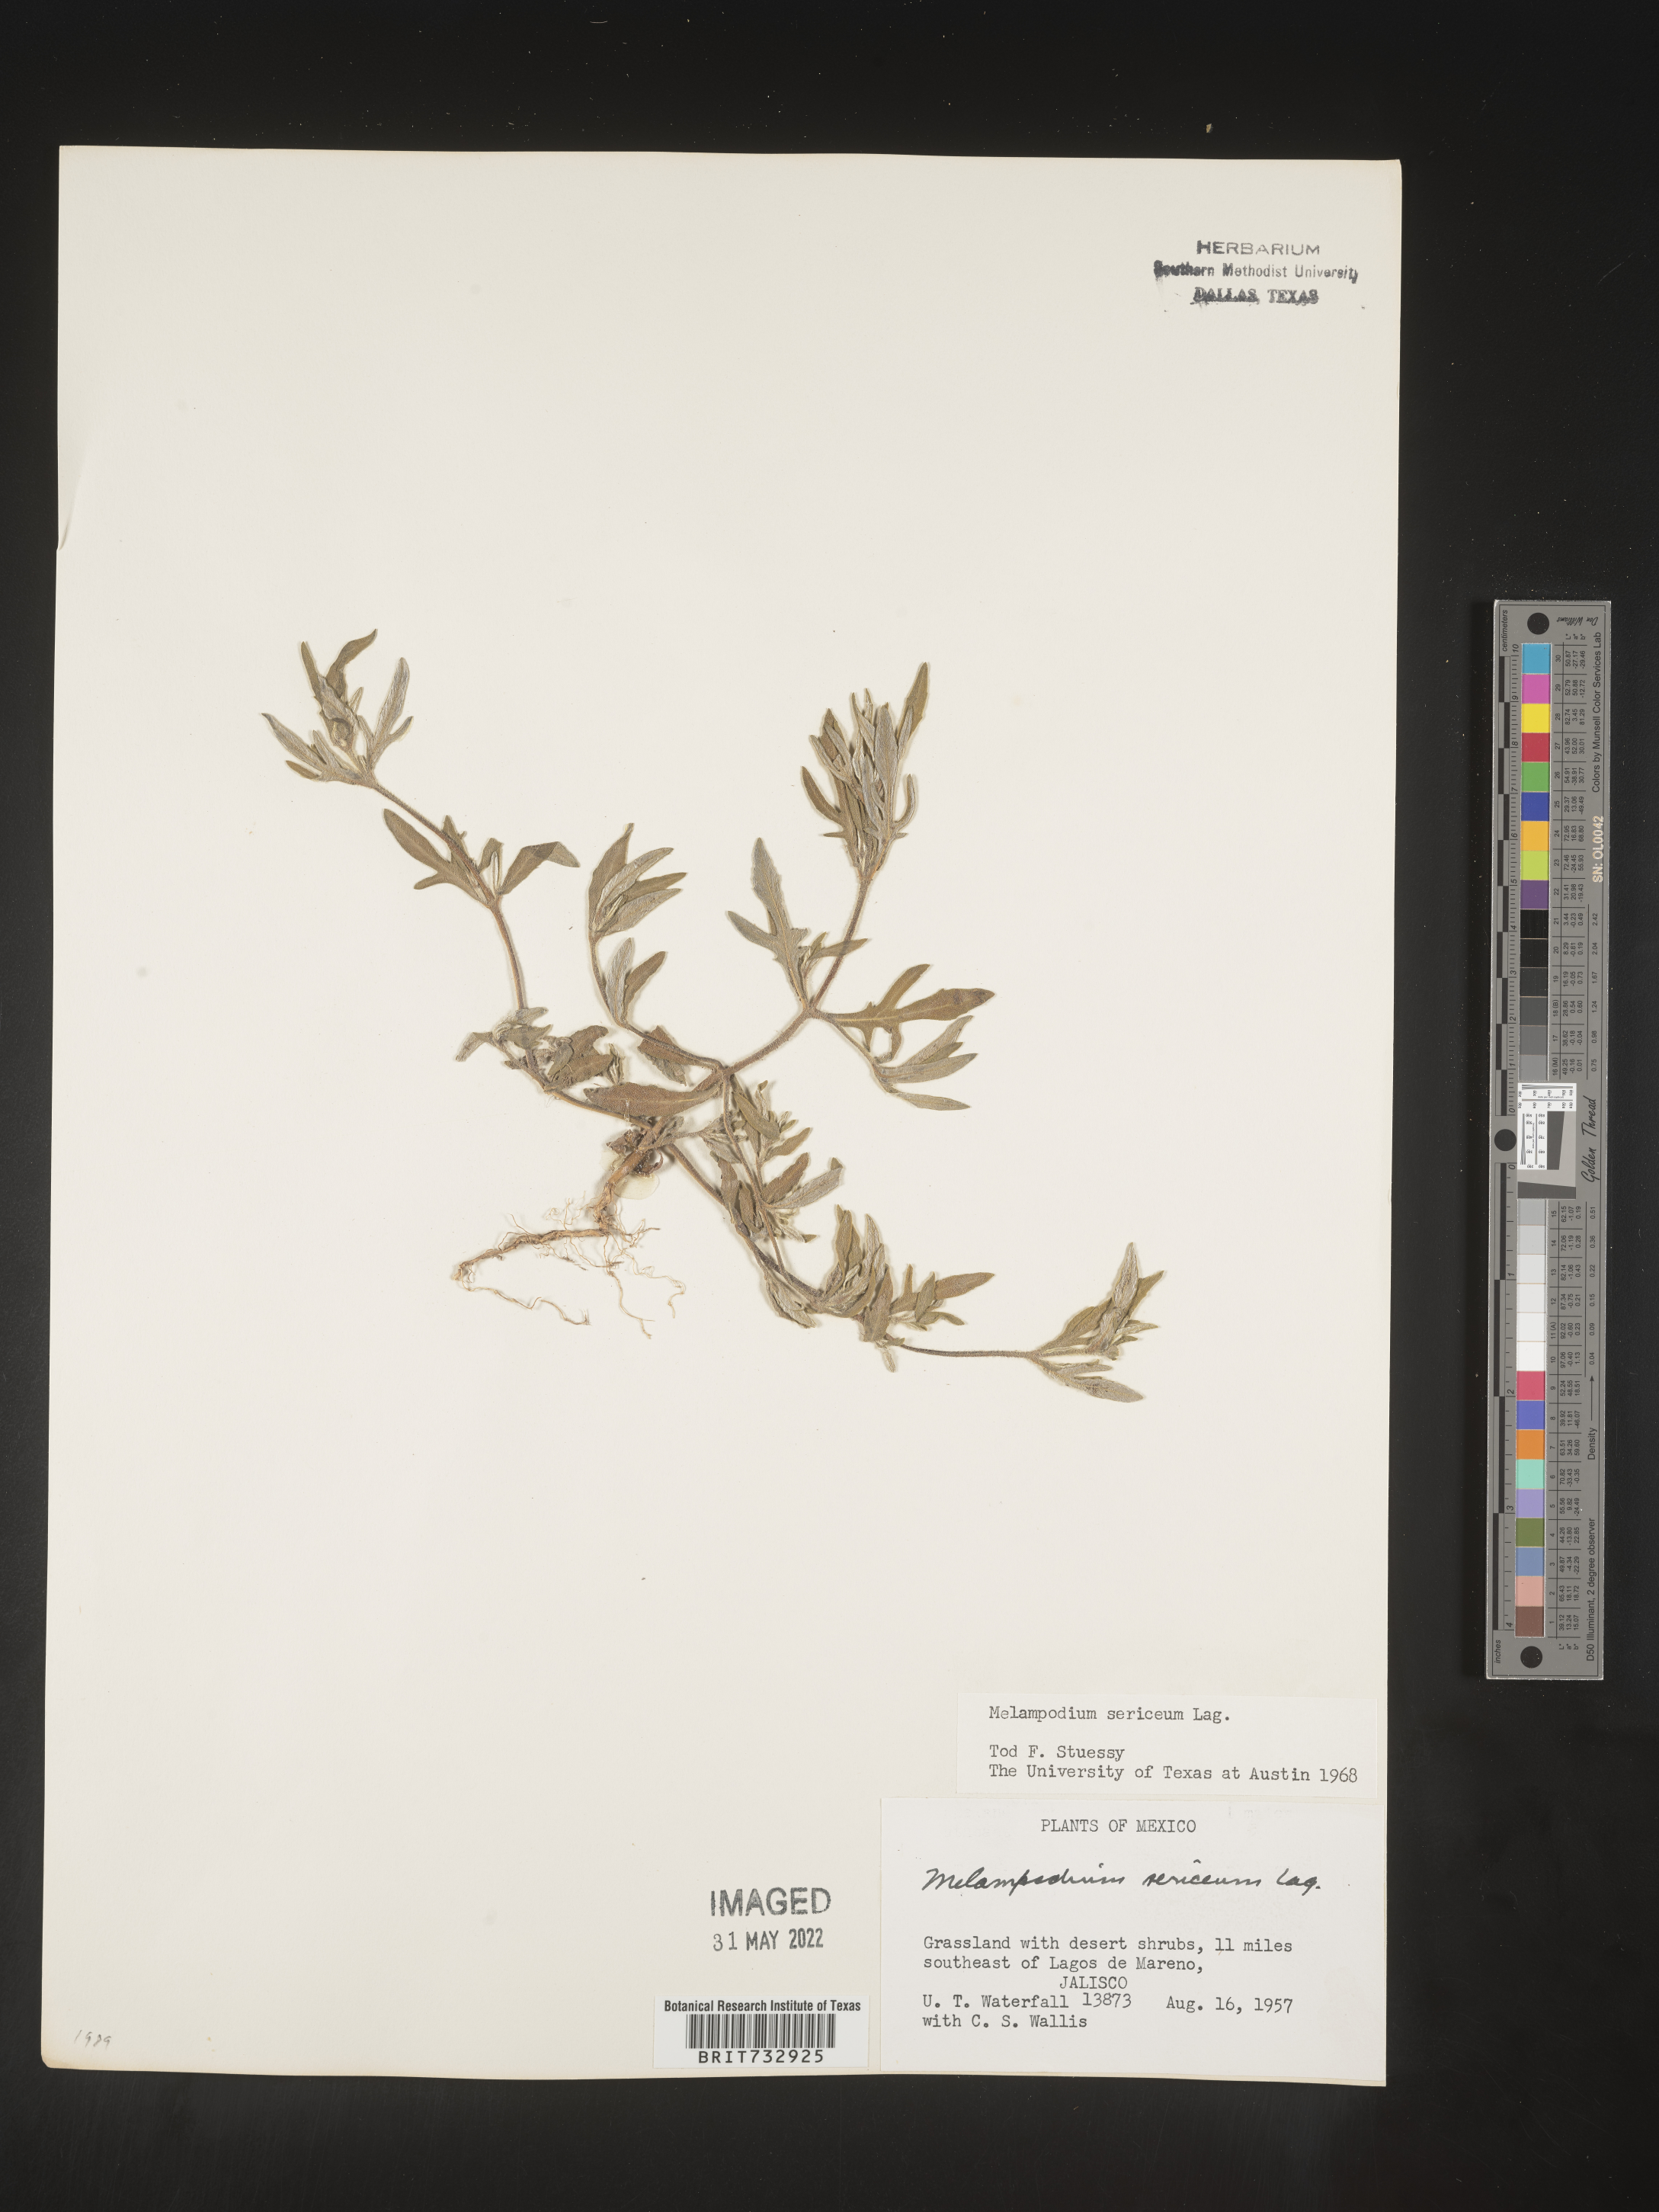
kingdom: Plantae
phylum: Tracheophyta
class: Magnoliopsida
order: Asterales
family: Asteraceae
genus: Melampodium
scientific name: Melampodium
